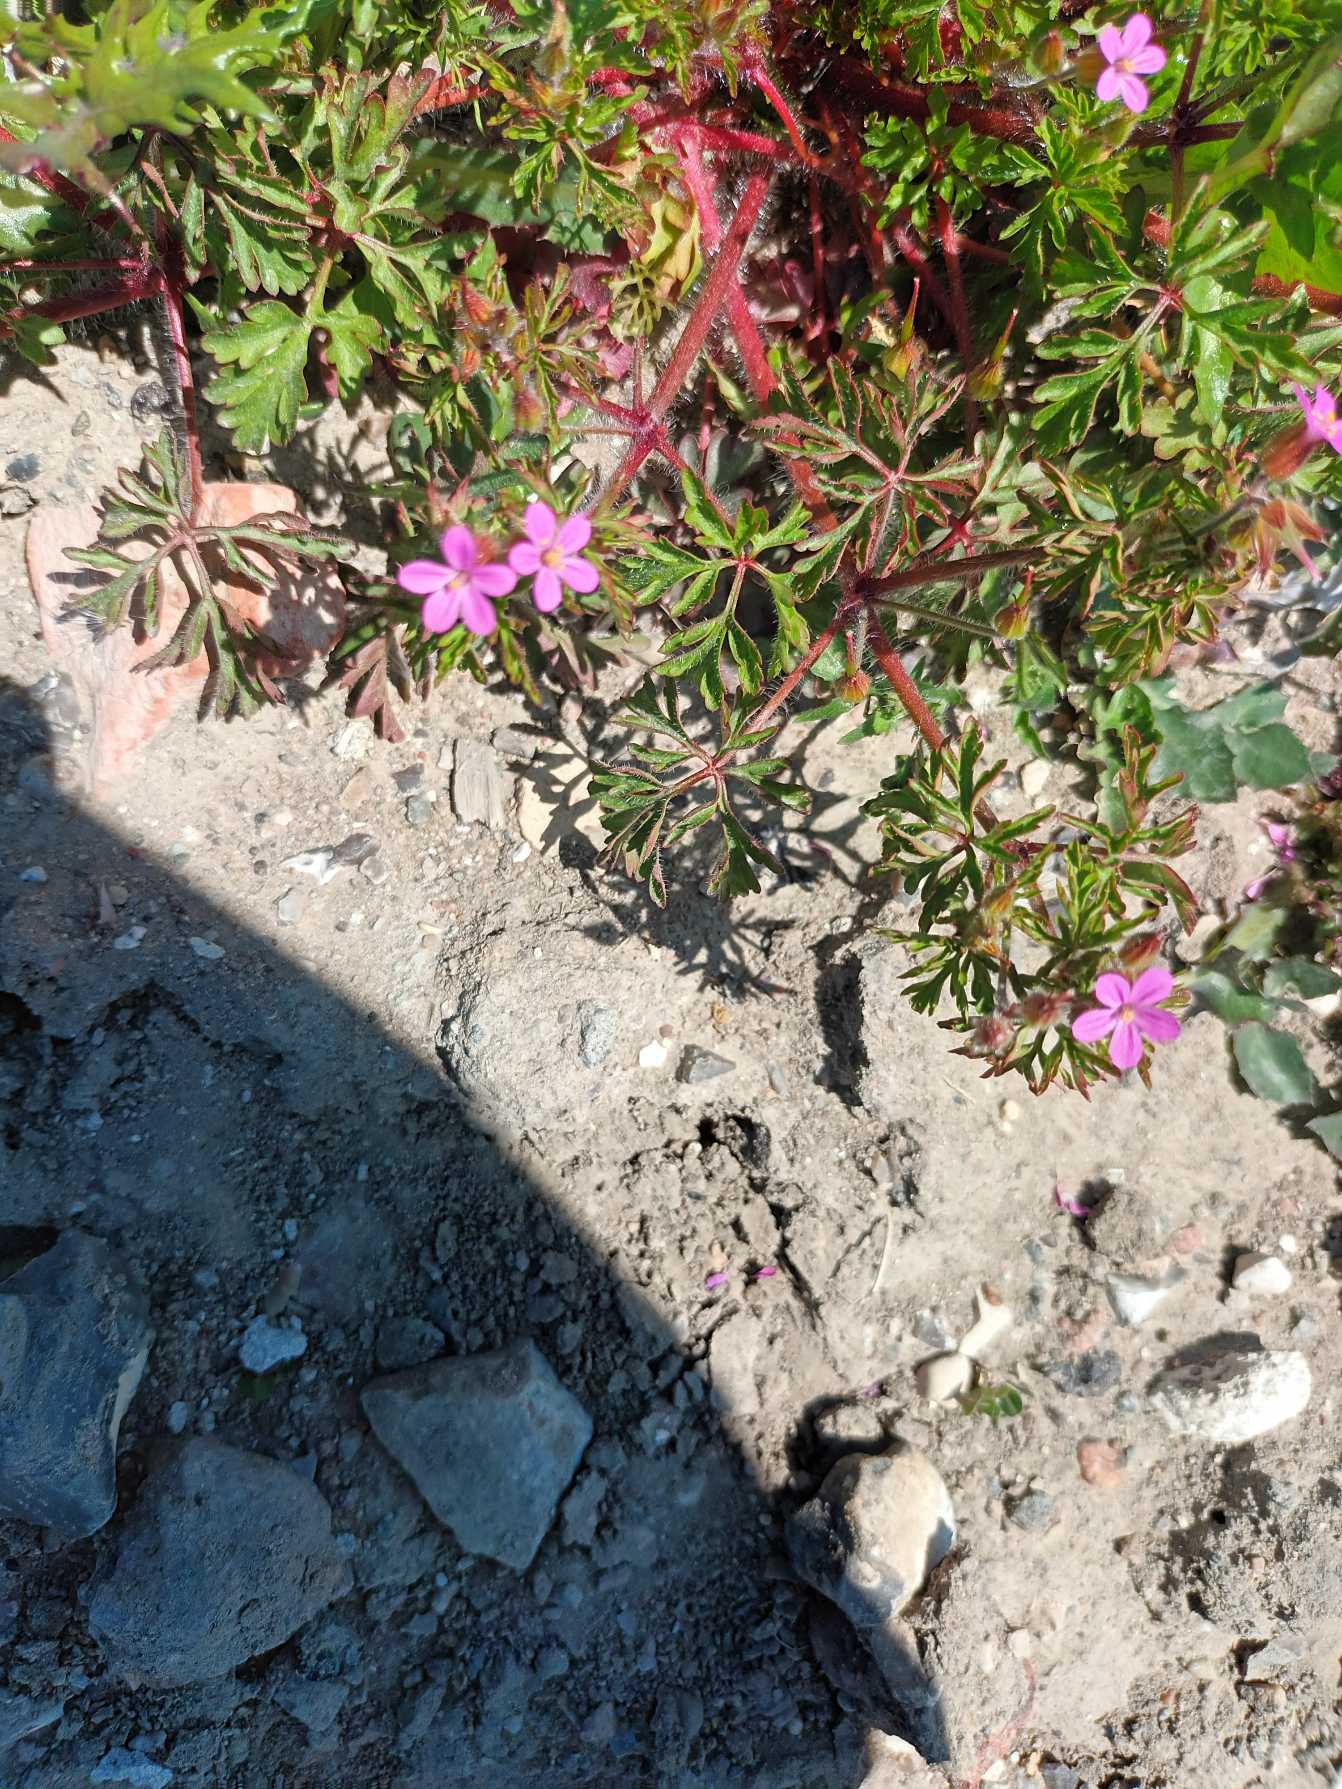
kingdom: Plantae
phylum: Tracheophyta
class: Magnoliopsida
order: Geraniales
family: Geraniaceae
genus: Geranium
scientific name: Geranium purpureum
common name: Purpur-storkenæb
